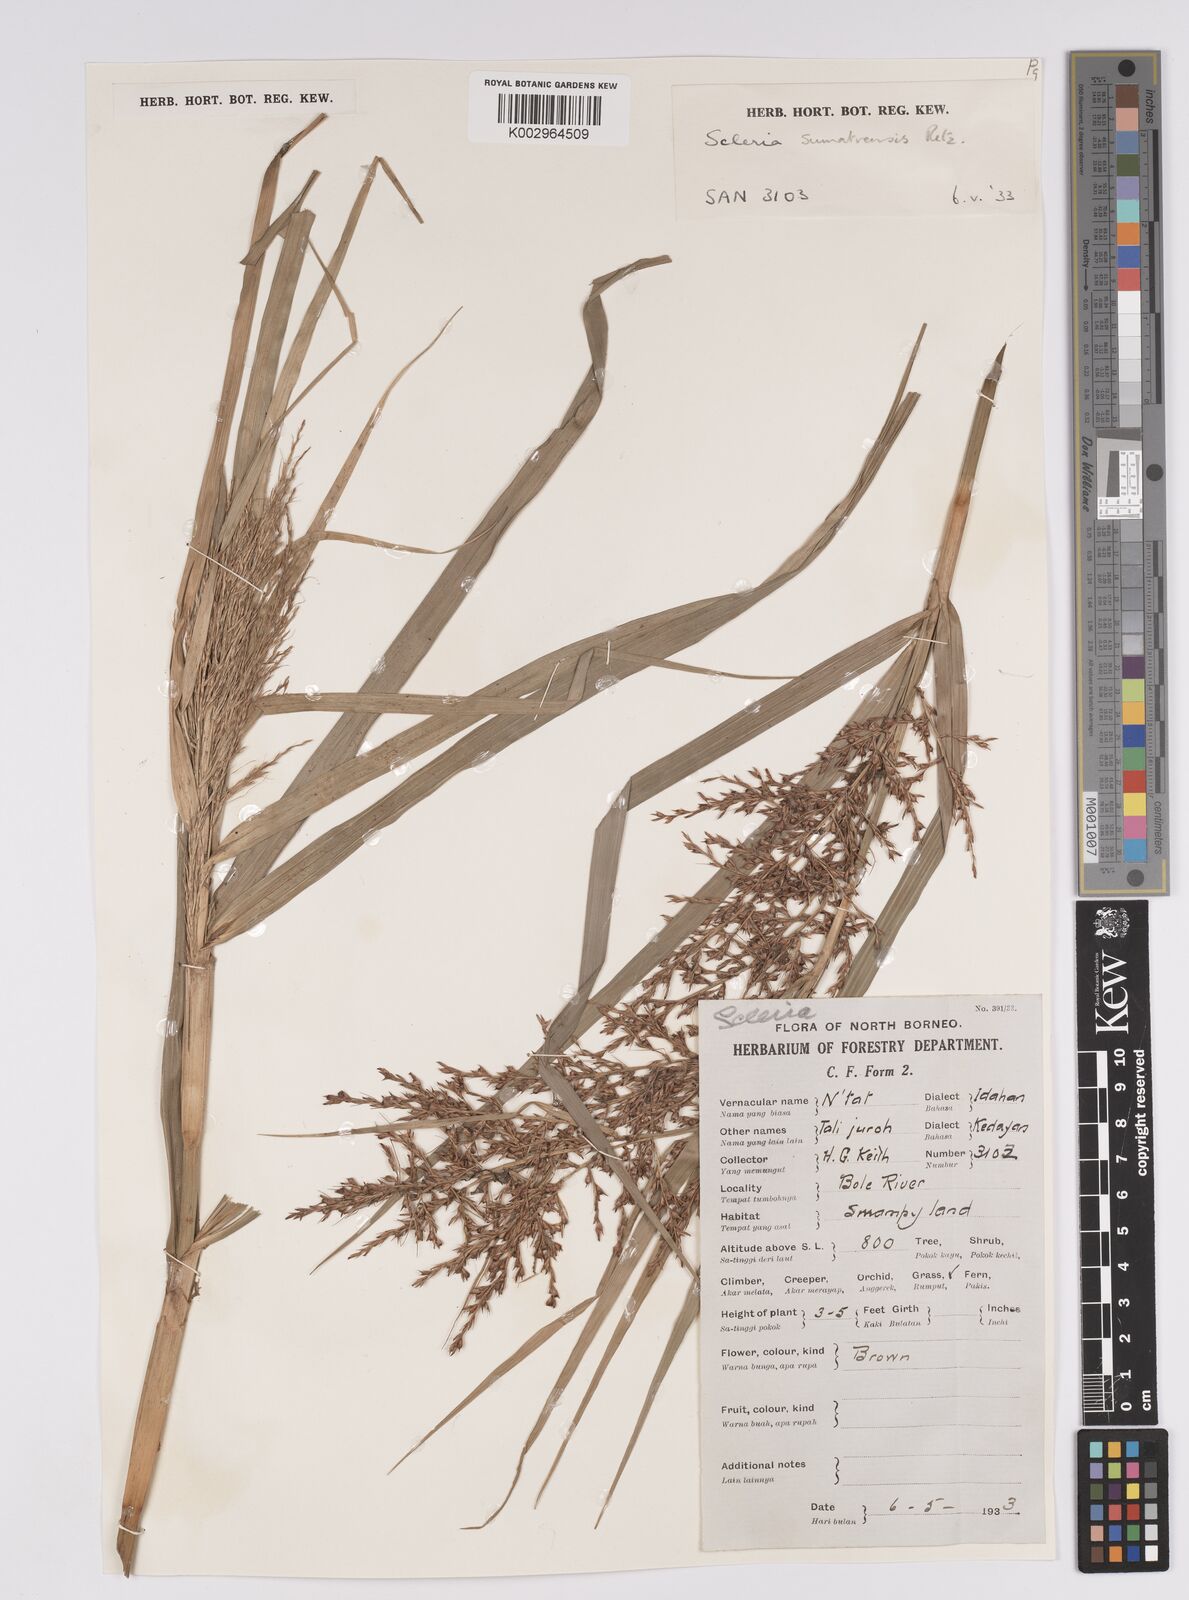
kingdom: Plantae
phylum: Tracheophyta
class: Liliopsida
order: Poales
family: Cyperaceae
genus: Scleria
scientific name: Scleria sumatrensis
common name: Sumatran scleria
